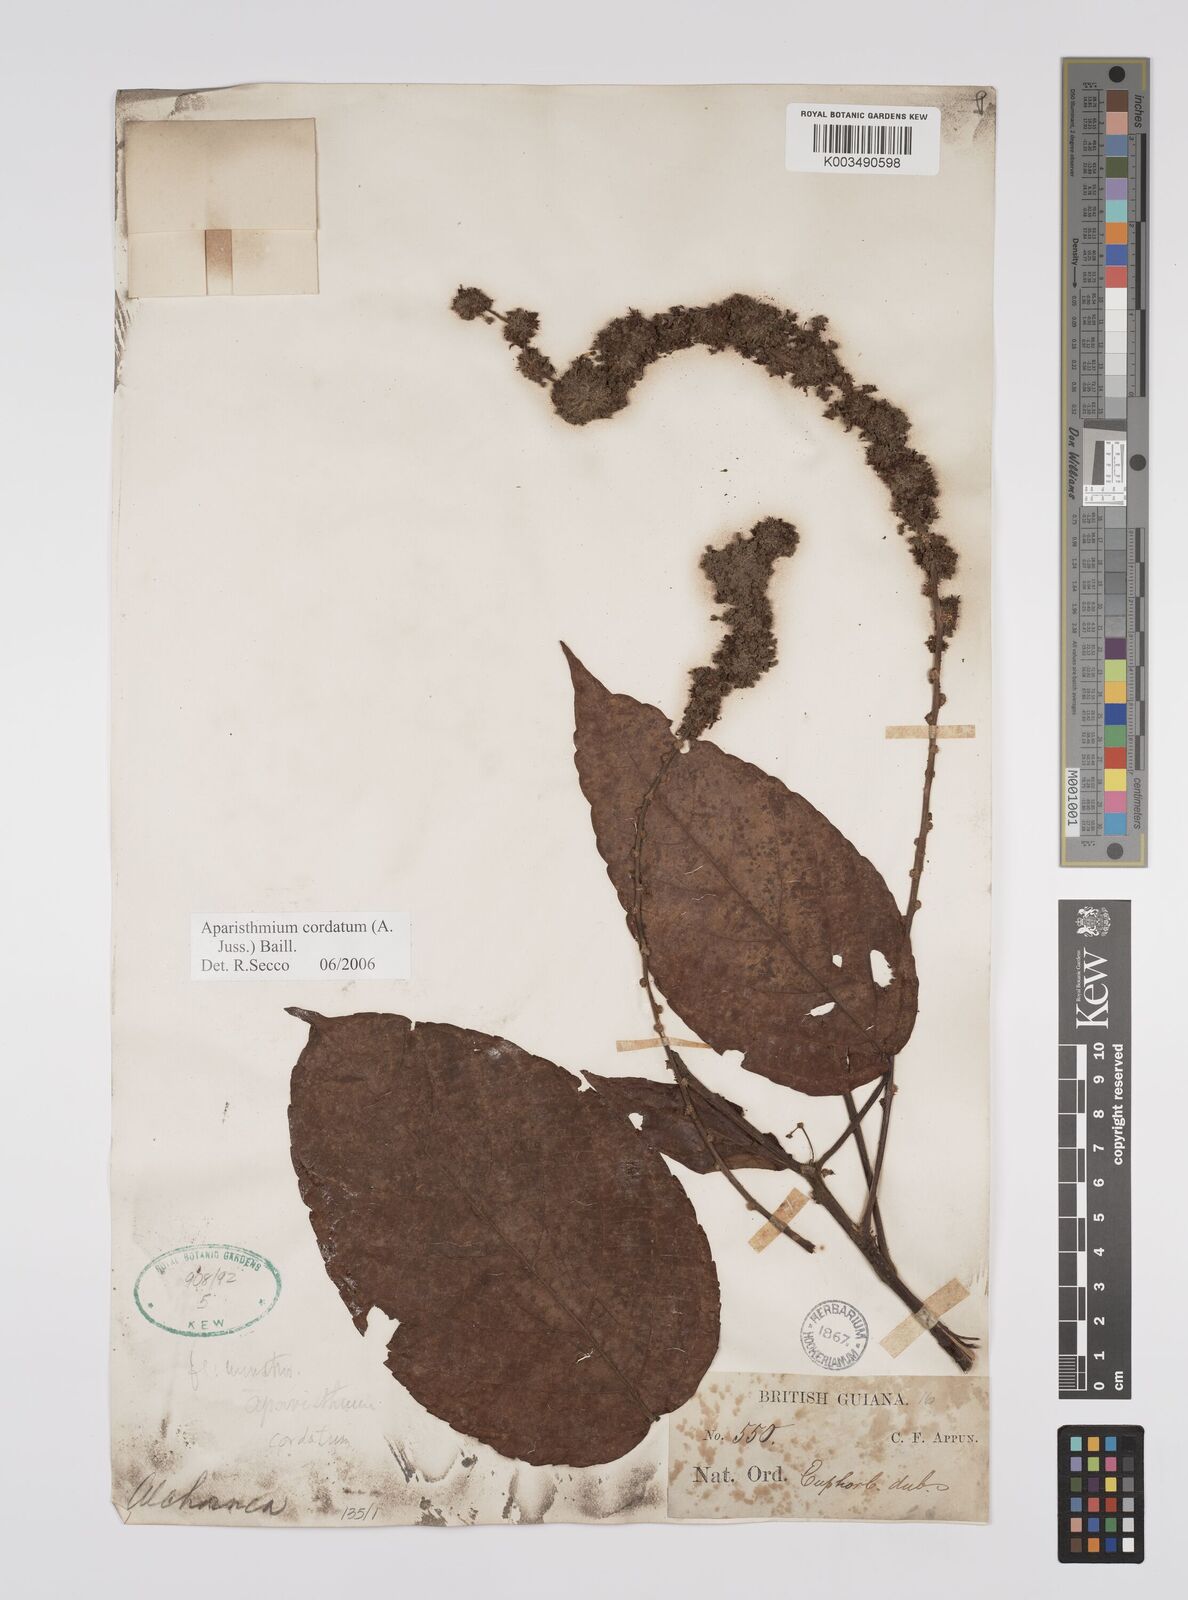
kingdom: Plantae
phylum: Tracheophyta
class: Magnoliopsida
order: Malpighiales
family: Euphorbiaceae
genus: Aparisthmium
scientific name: Aparisthmium cordatum
